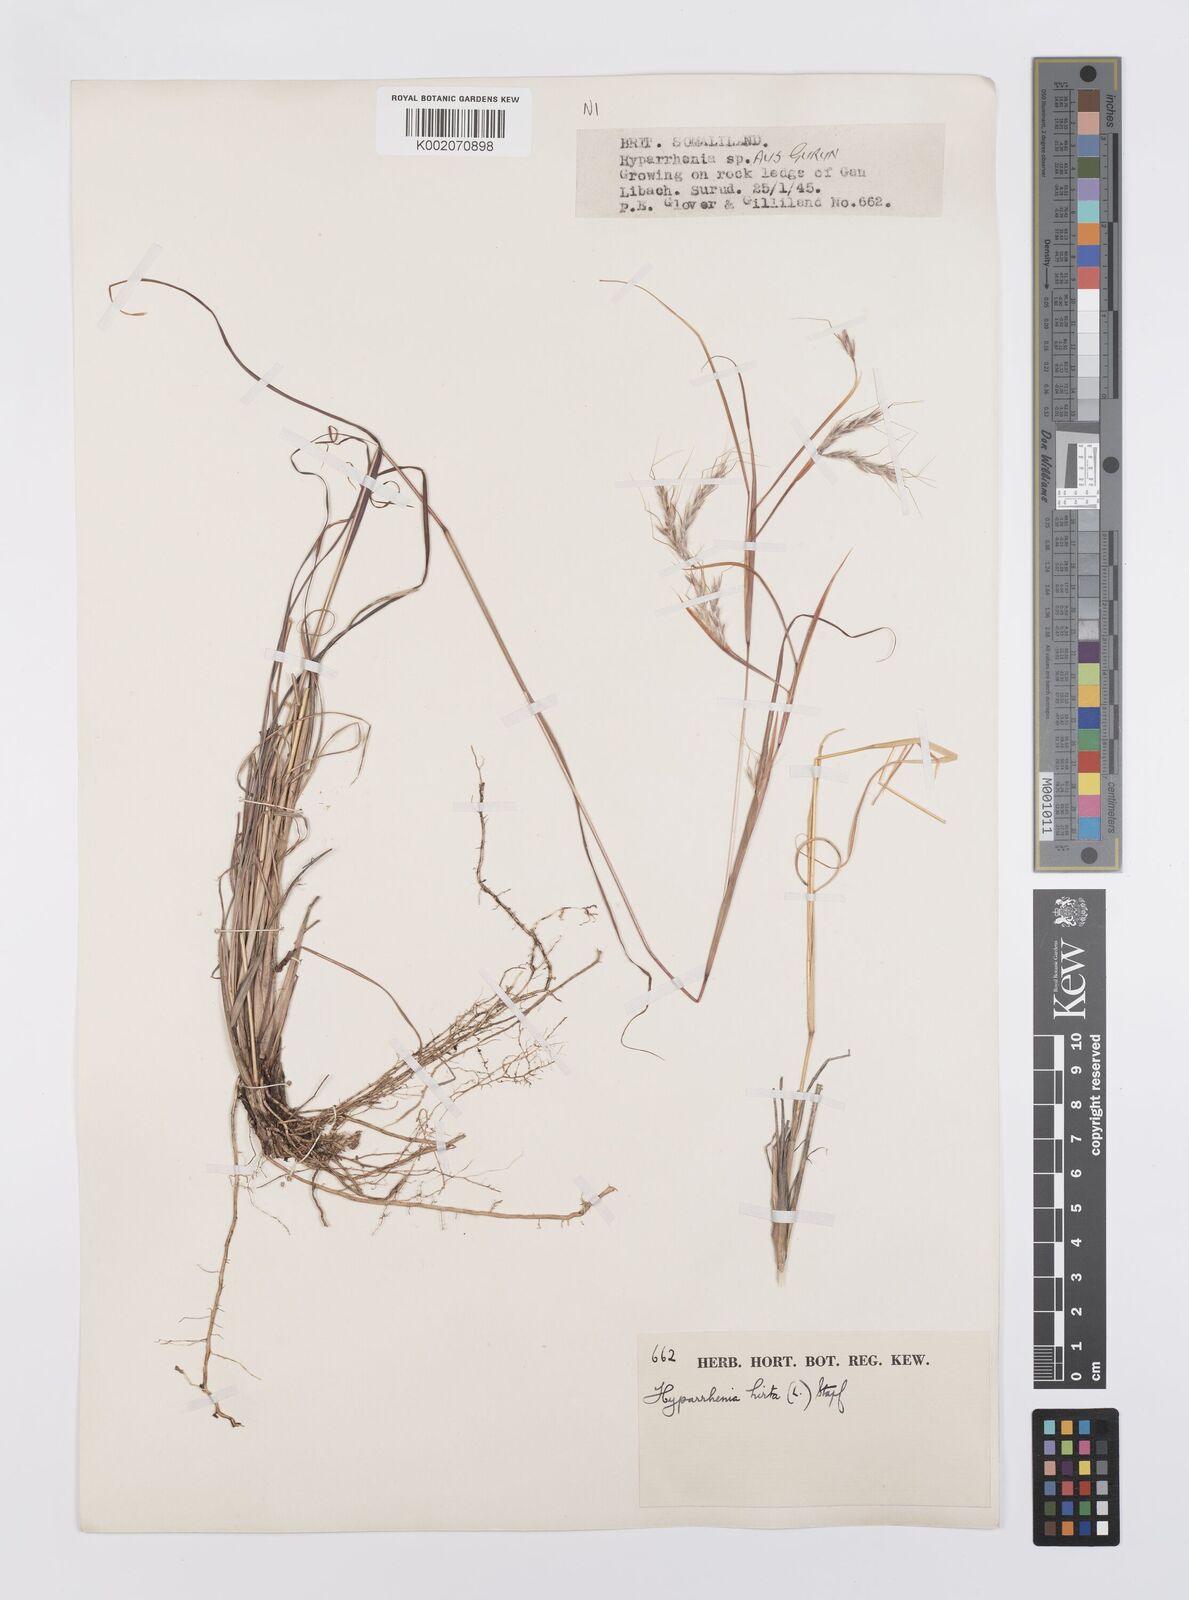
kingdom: Plantae
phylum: Tracheophyta
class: Liliopsida
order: Poales
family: Poaceae
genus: Hyparrhenia
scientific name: Hyparrhenia hirta
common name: Thatching grass
